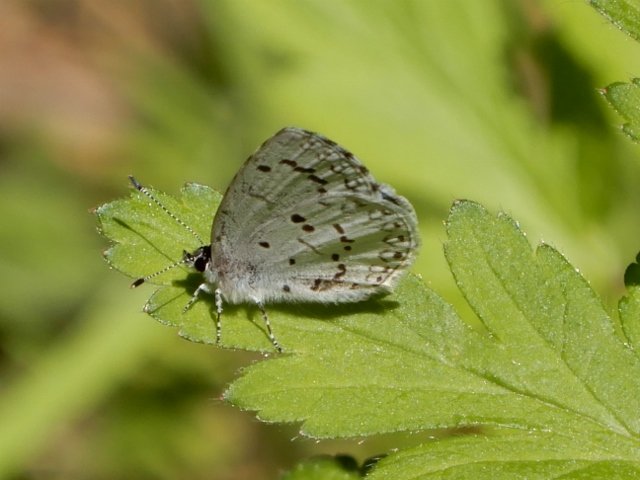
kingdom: Animalia
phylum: Arthropoda
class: Insecta
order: Lepidoptera
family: Lycaenidae
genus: Celastrina
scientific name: Celastrina
